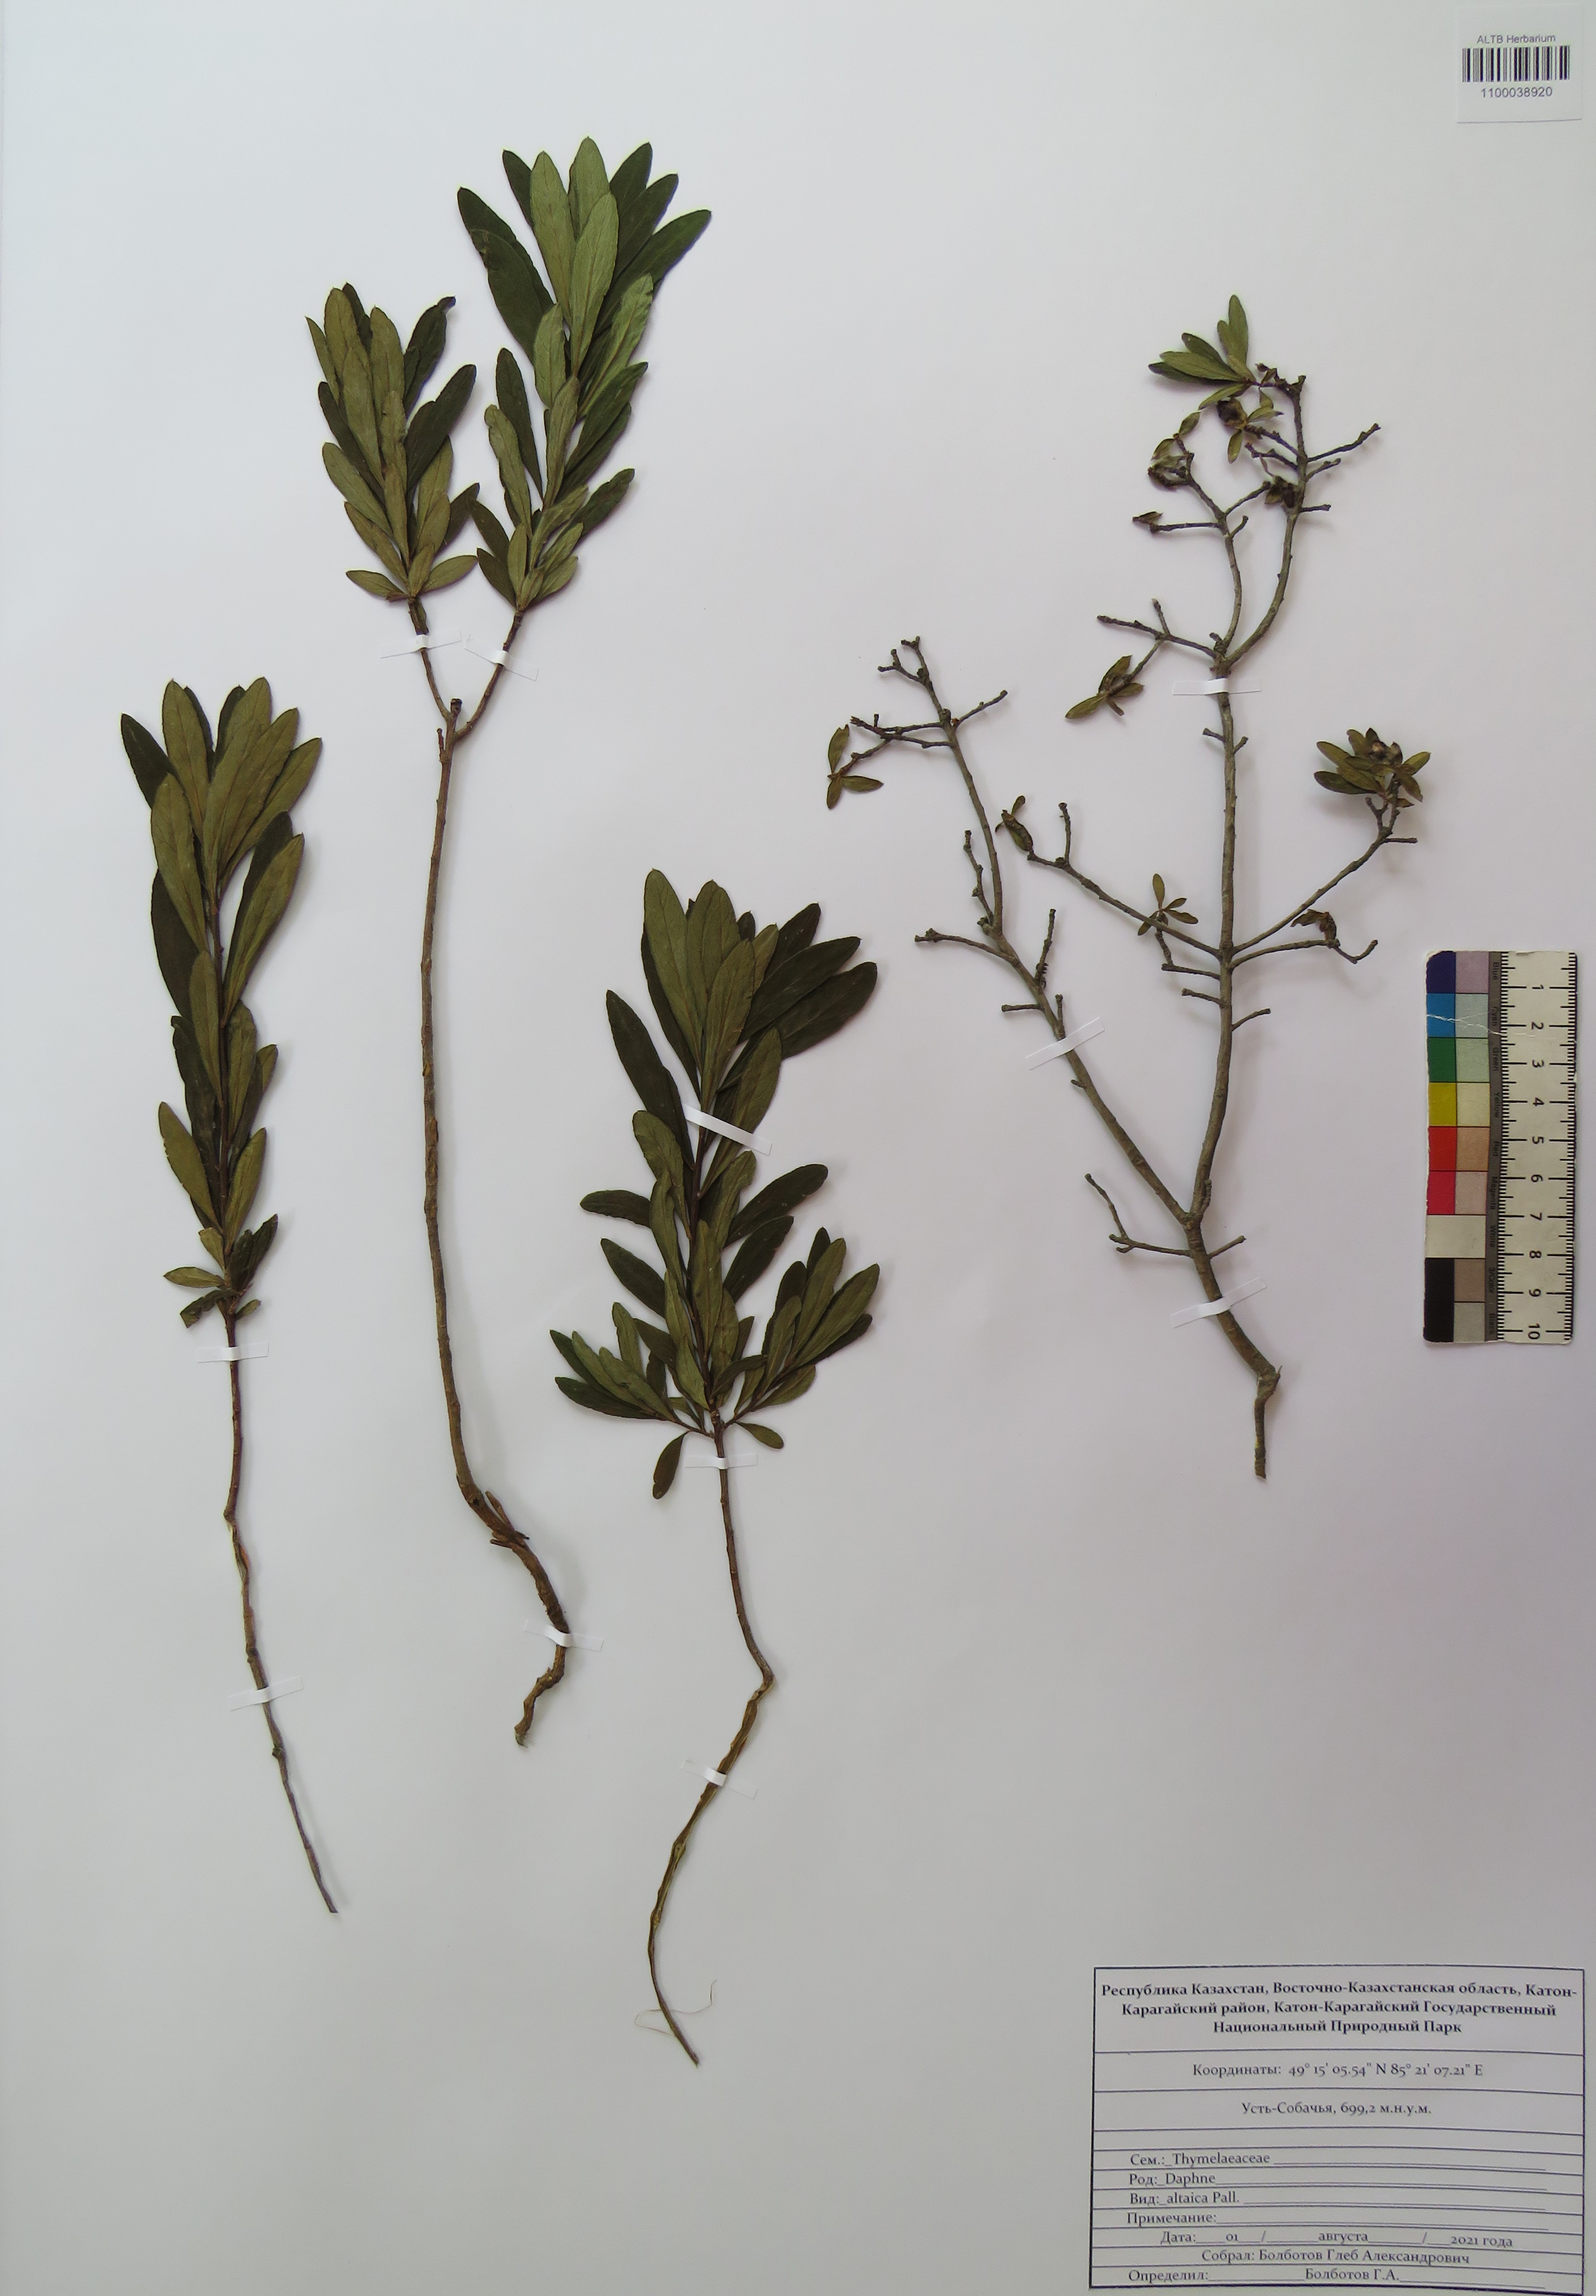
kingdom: Plantae
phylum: Tracheophyta
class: Magnoliopsida
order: Malvales
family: Thymelaeaceae
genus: Daphne
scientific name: Daphne altaica
